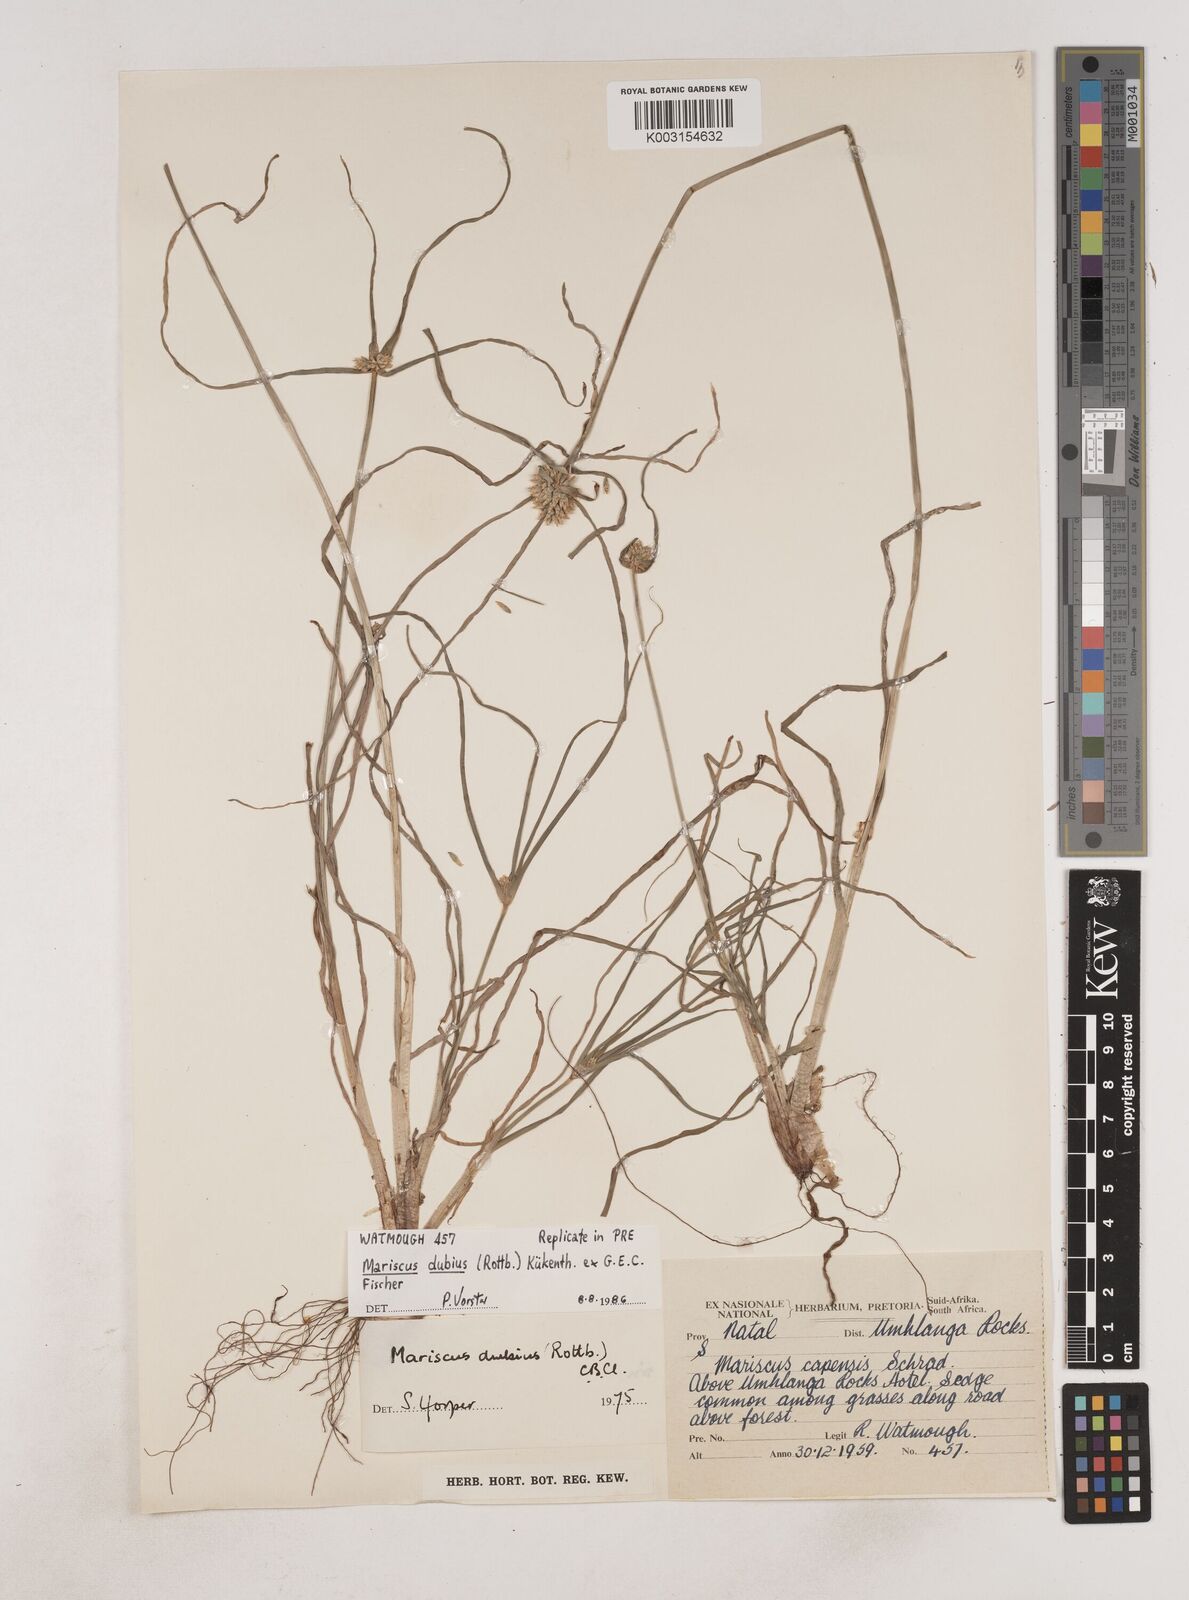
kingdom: Plantae
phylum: Tracheophyta
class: Liliopsida
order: Poales
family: Cyperaceae
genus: Cyperus
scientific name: Cyperus dubius
